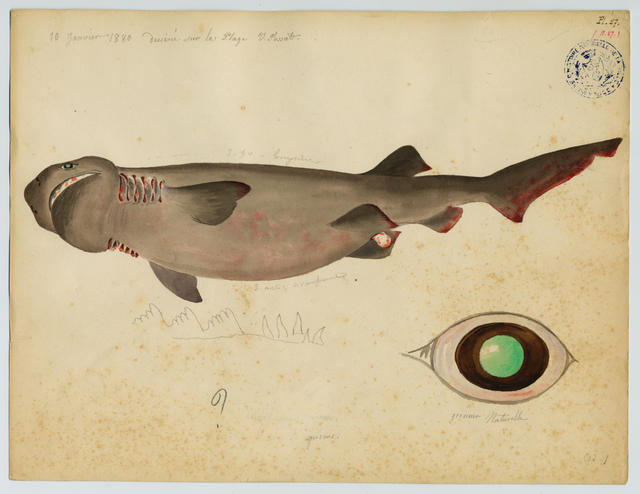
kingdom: Animalia
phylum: Chordata
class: Elasmobranchii
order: Hexanchiformes
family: Hexanchidae
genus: Hexanchus
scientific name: Hexanchus griseus
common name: Bluntnose sixgill shark
